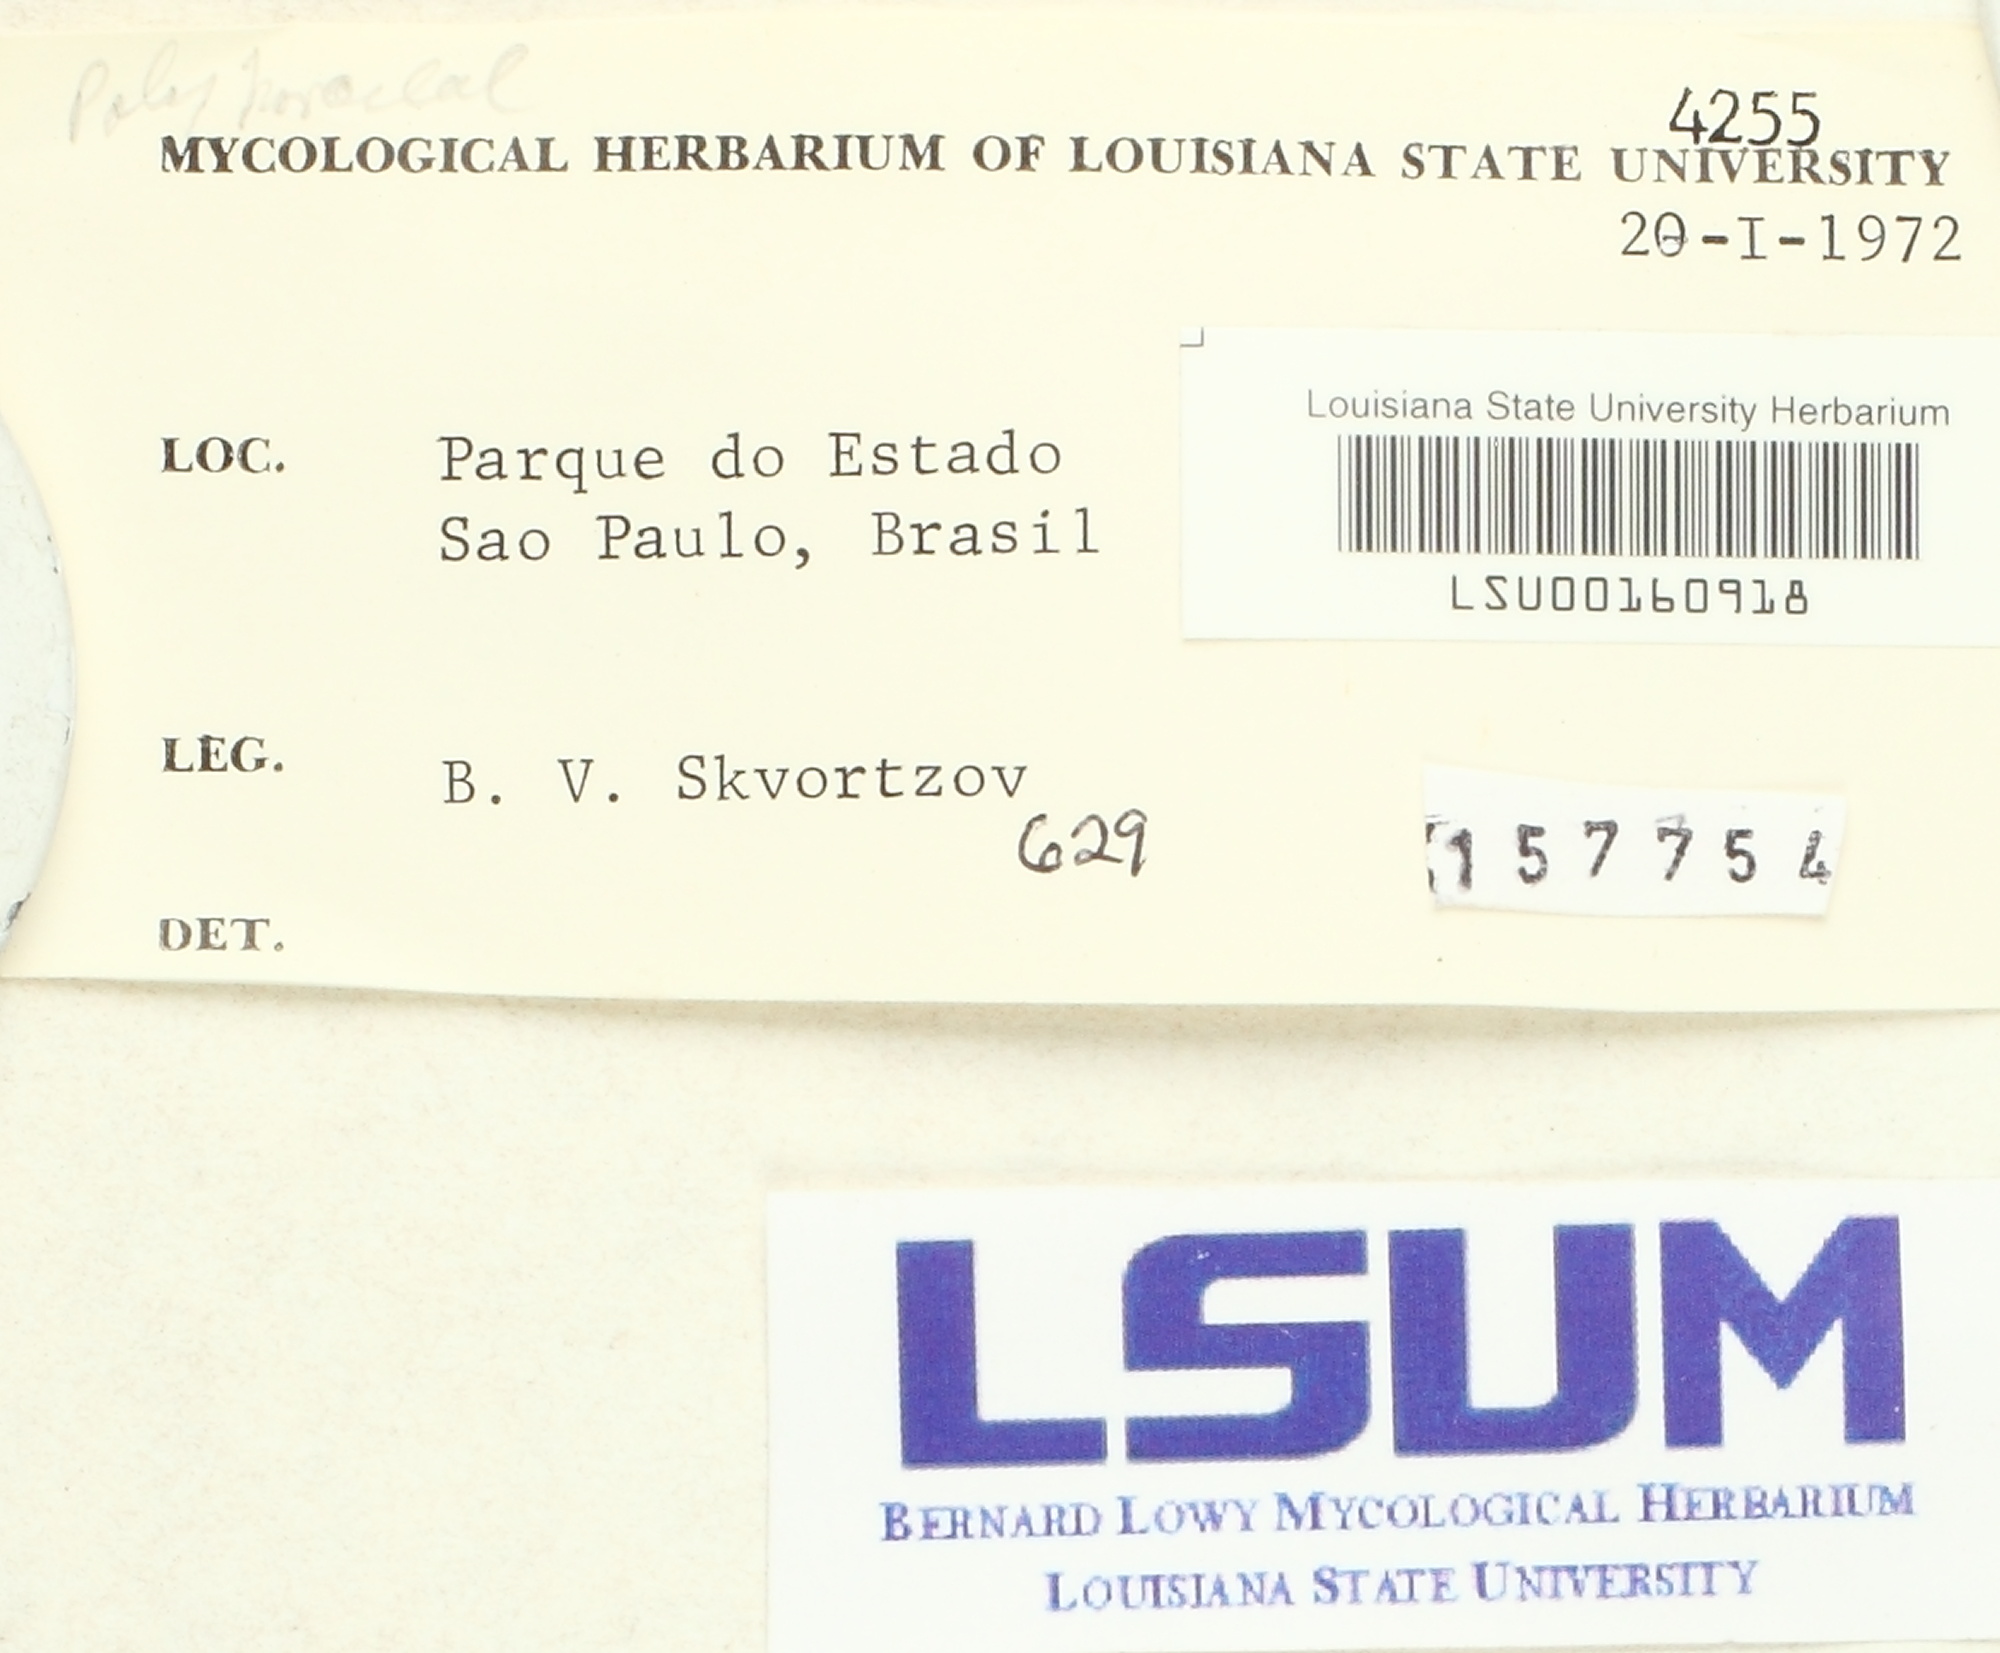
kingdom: Fungi
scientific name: Fungi
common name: Fungi
